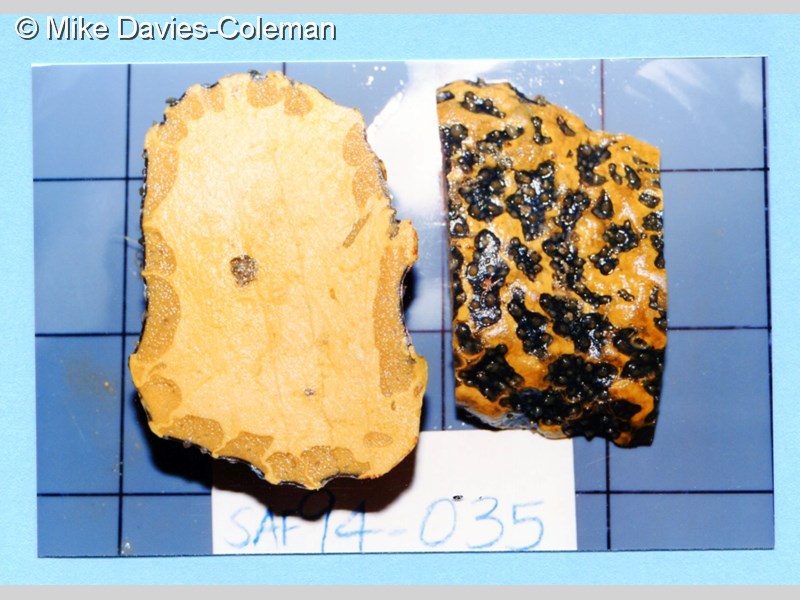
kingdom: Animalia
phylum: Cnidaria
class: Anthozoa
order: Zoantharia
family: Parazoanthidae
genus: Parazoanthus
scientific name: Parazoanthus
